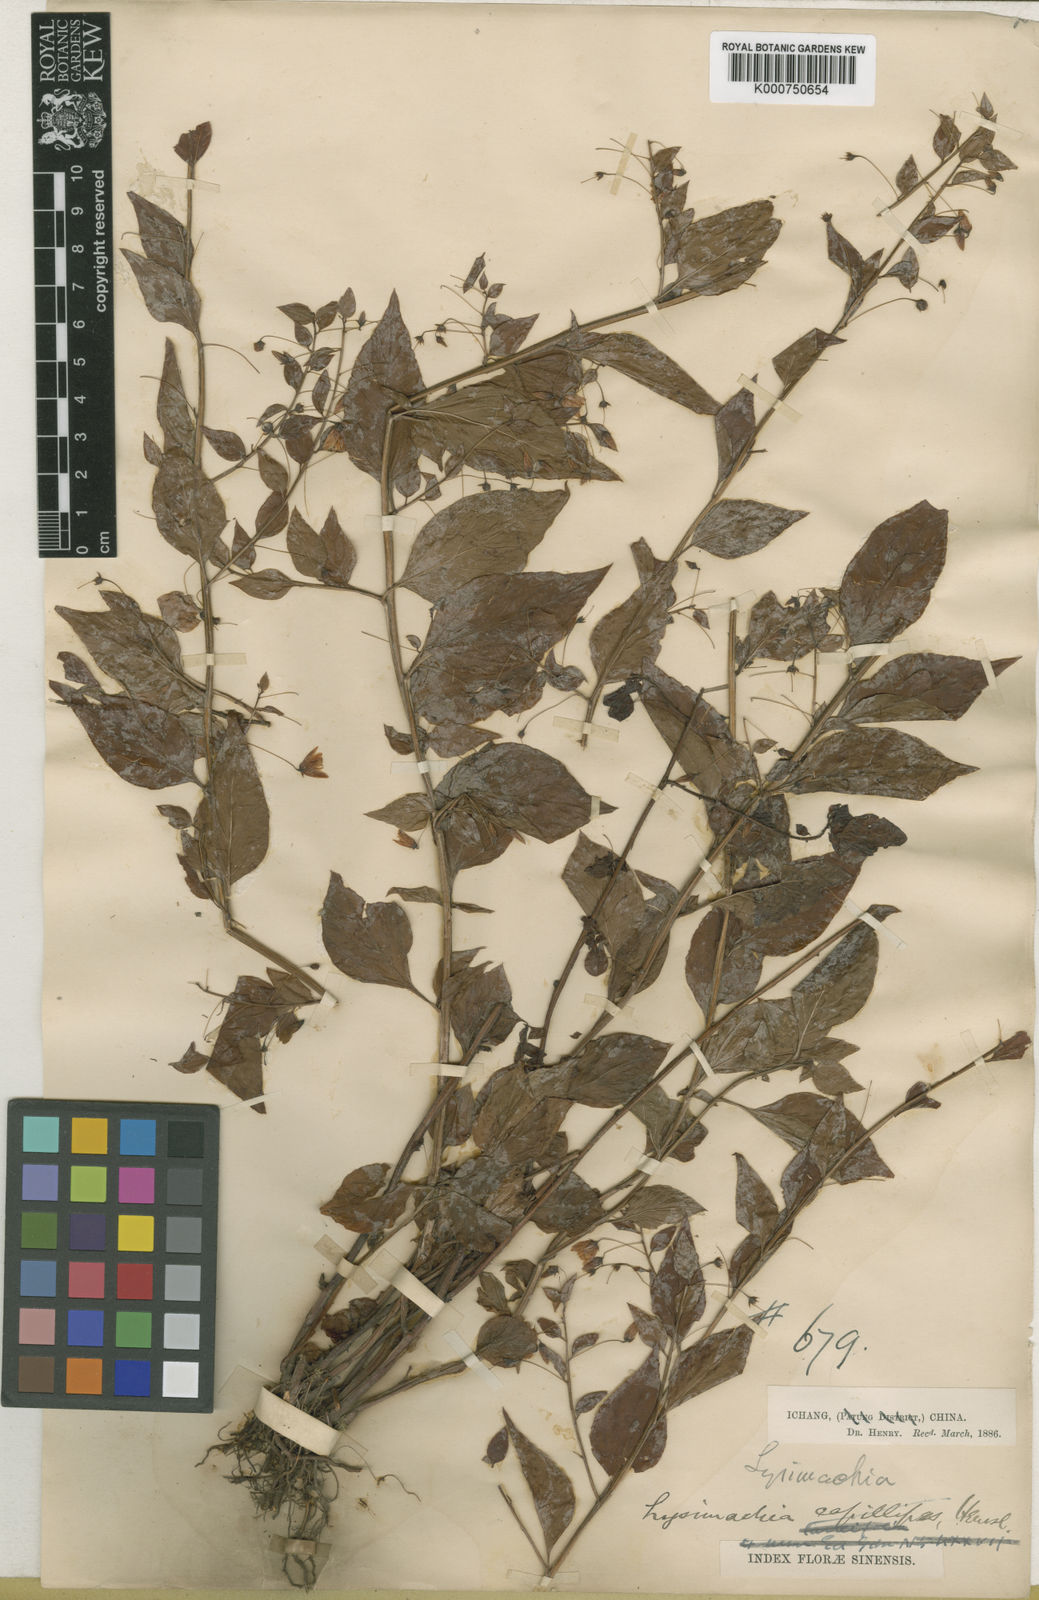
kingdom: Plantae
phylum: Tracheophyta
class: Magnoliopsida
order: Ericales
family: Primulaceae
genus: Lysimachia
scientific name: Lysimachia capillipes
